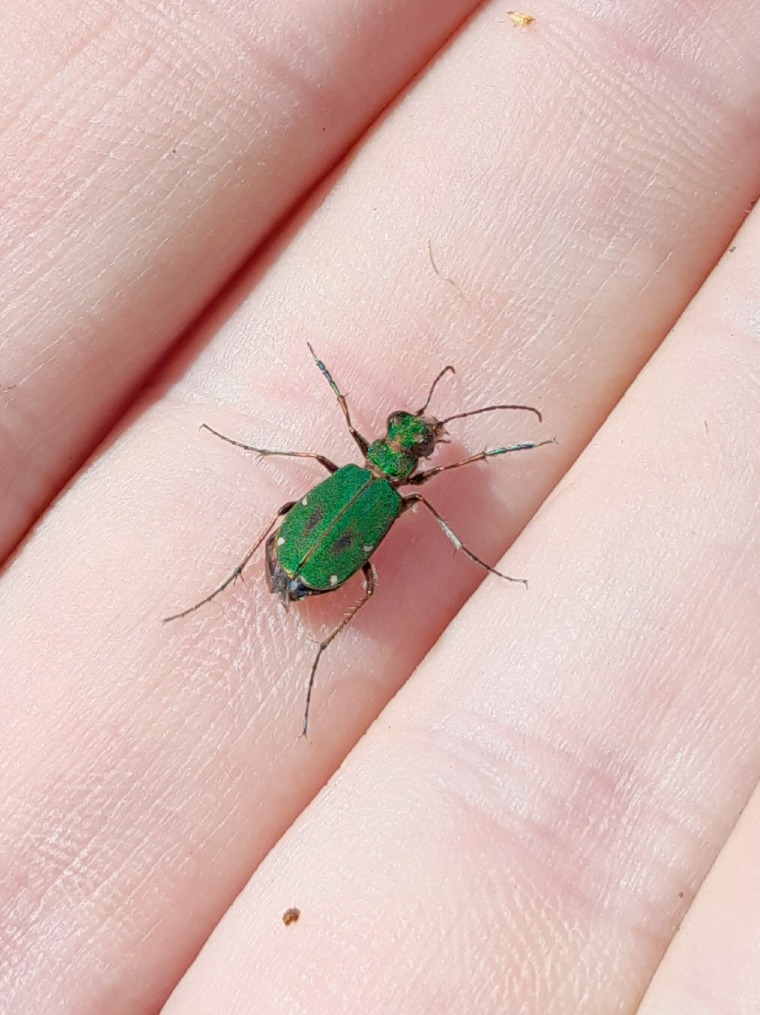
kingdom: Animalia
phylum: Arthropoda
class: Insecta
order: Coleoptera
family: Carabidae
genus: Cicindela
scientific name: Cicindela campestris
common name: Grøn sandspringer
